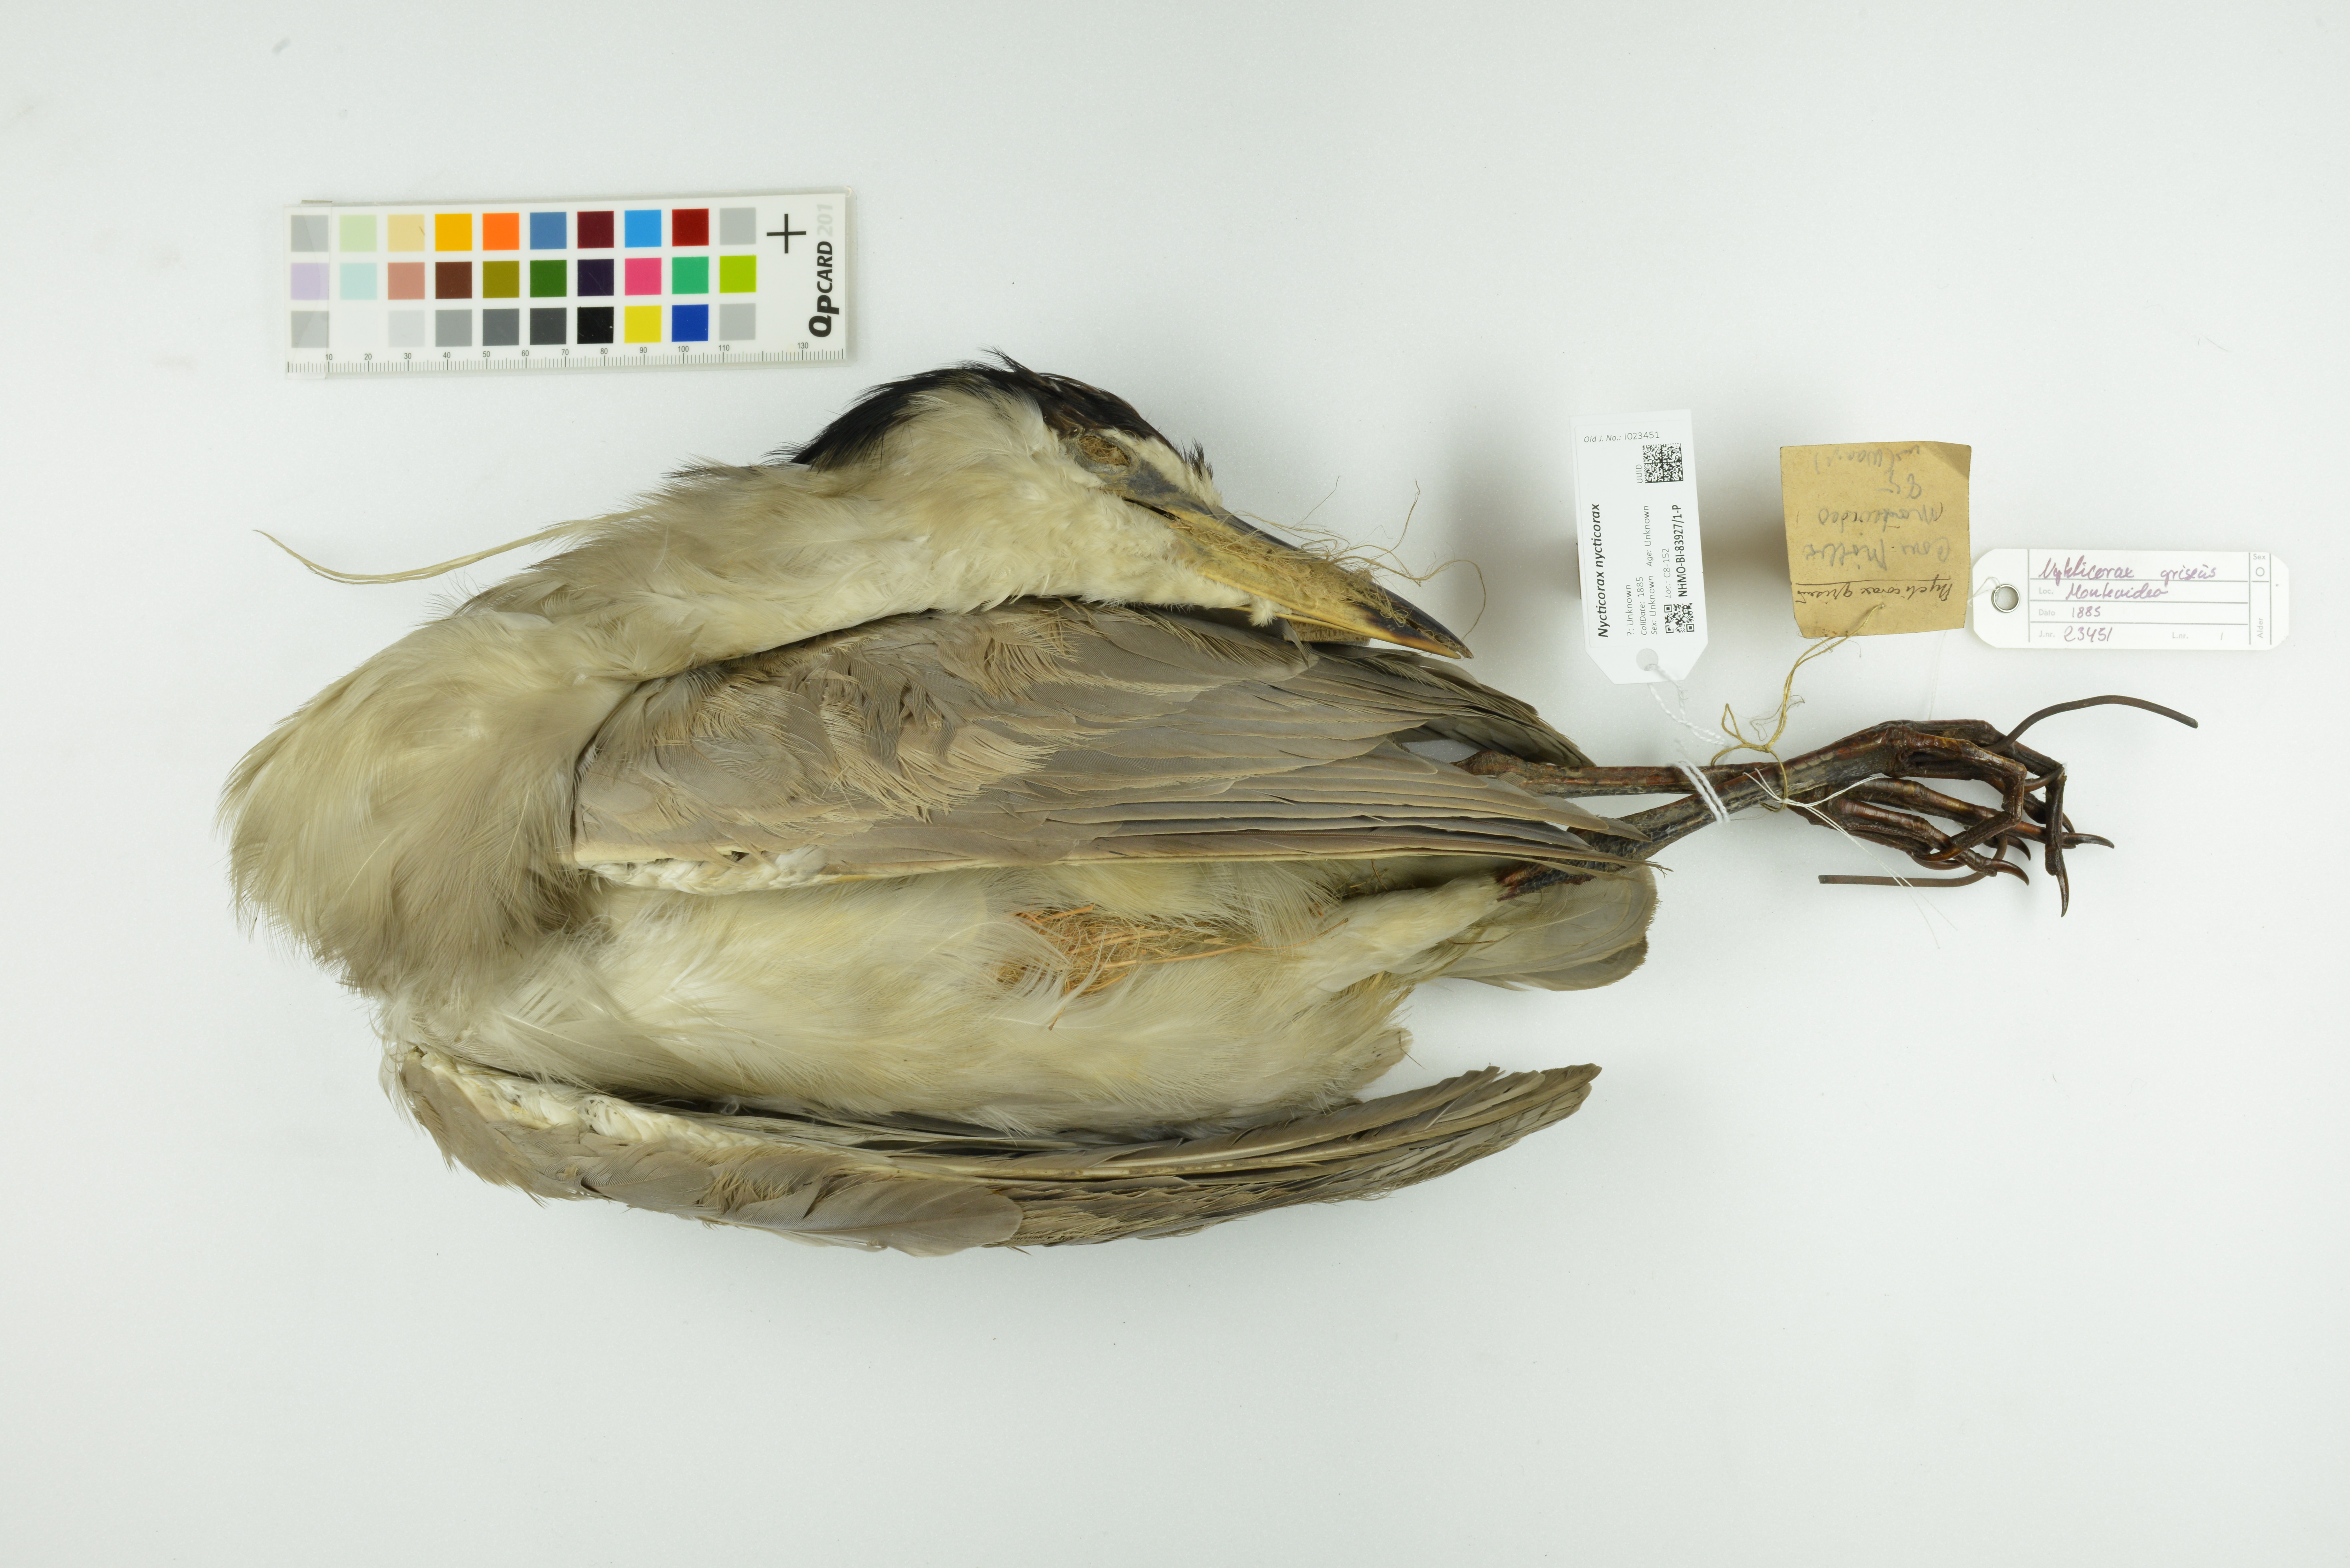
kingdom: Animalia
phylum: Chordata
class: Aves
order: Pelecaniformes
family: Ardeidae
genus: Nycticorax
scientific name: Nycticorax nycticorax
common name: Black-crowned night heron
